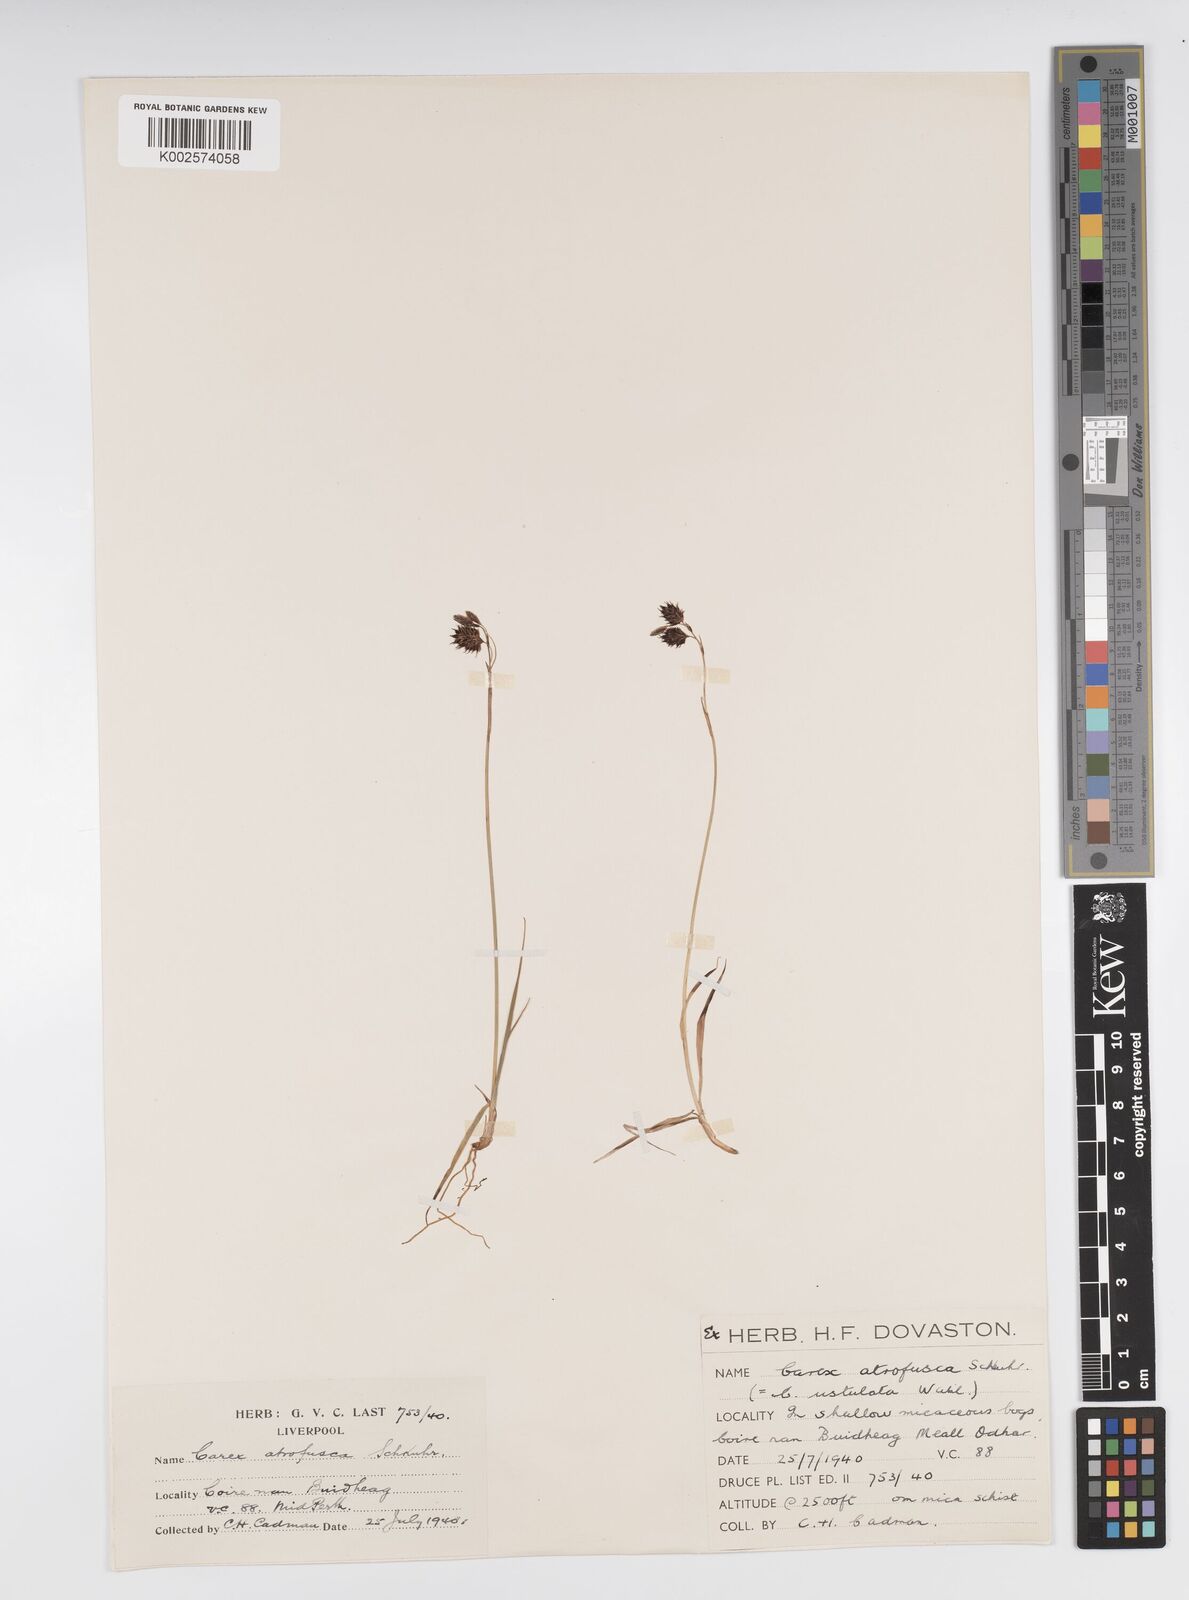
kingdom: Plantae
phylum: Tracheophyta
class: Liliopsida
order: Poales
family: Cyperaceae
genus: Carex
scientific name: Carex atrofusca
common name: Scorched alpine-sedge
